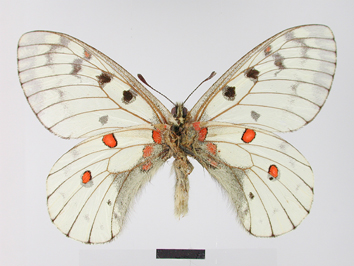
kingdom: Animalia
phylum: Arthropoda
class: Insecta
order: Lepidoptera
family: Papilionidae
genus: Parnassius
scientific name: Parnassius bremeri
